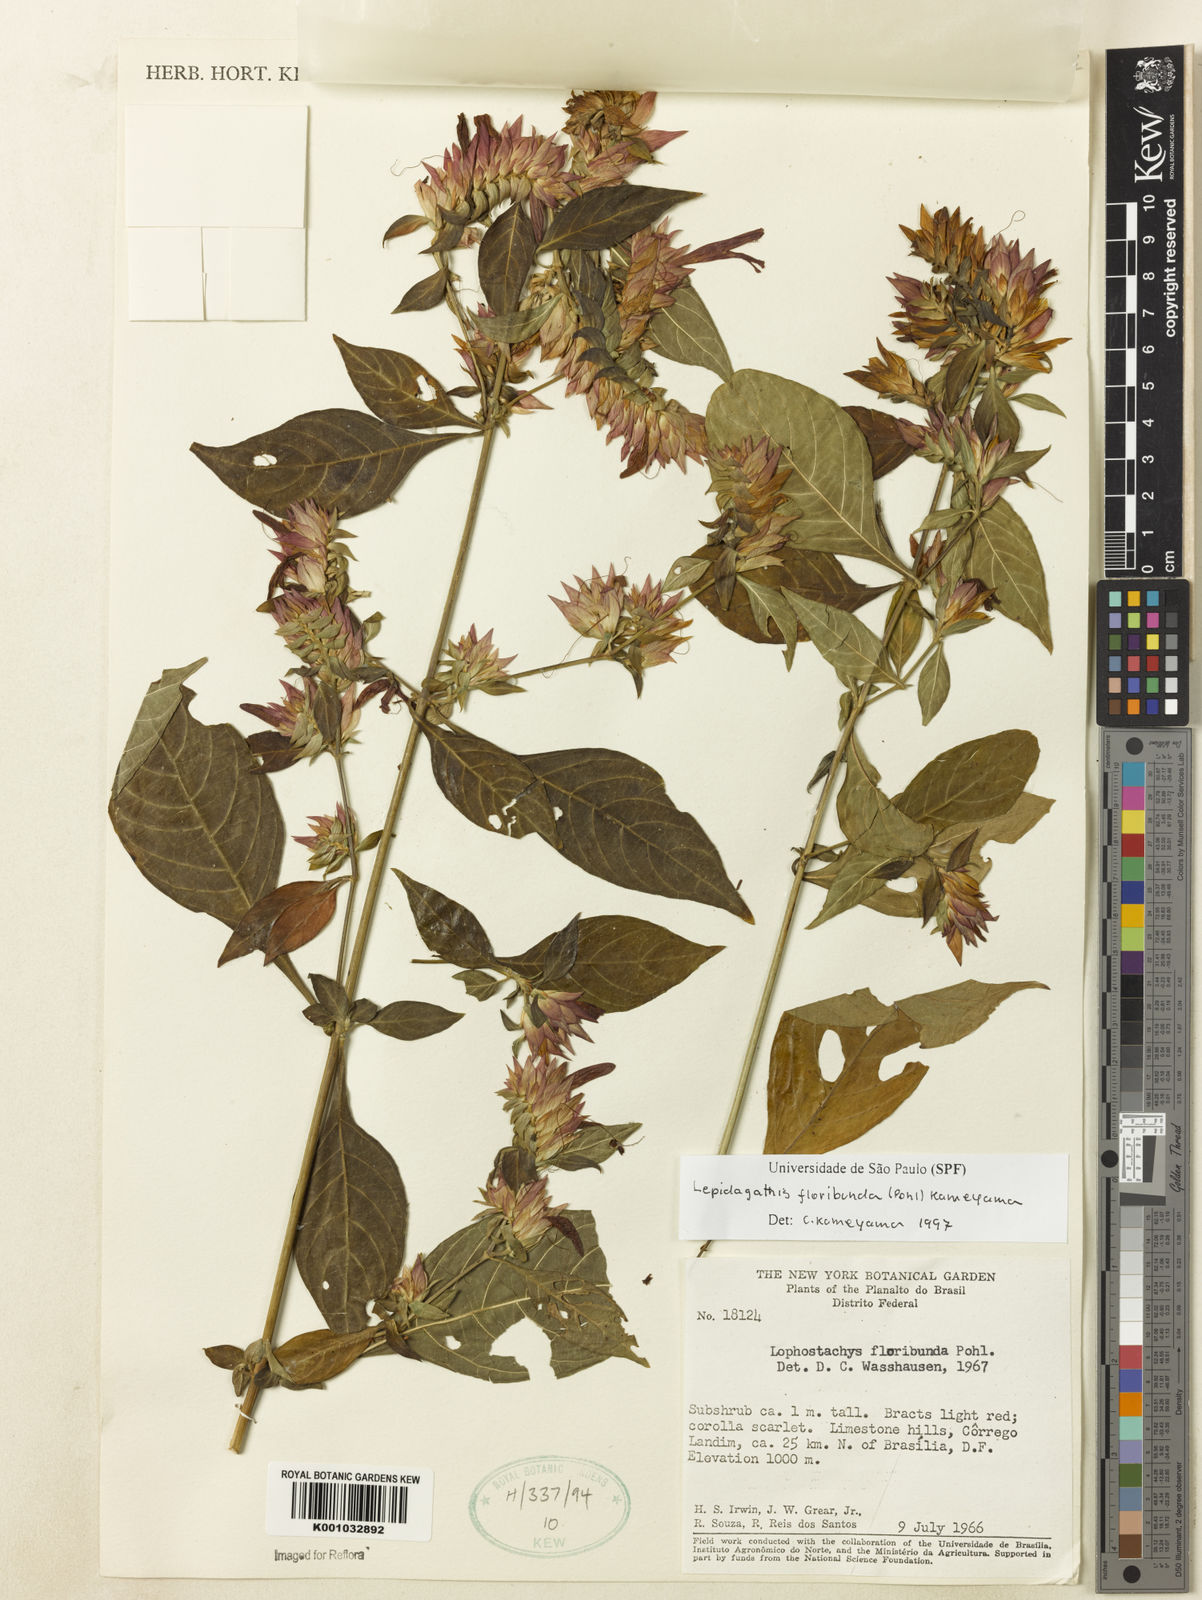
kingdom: Plantae
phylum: Tracheophyta
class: Magnoliopsida
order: Lamiales
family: Acanthaceae
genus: Lepidagathis
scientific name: Lepidagathis floribunda
